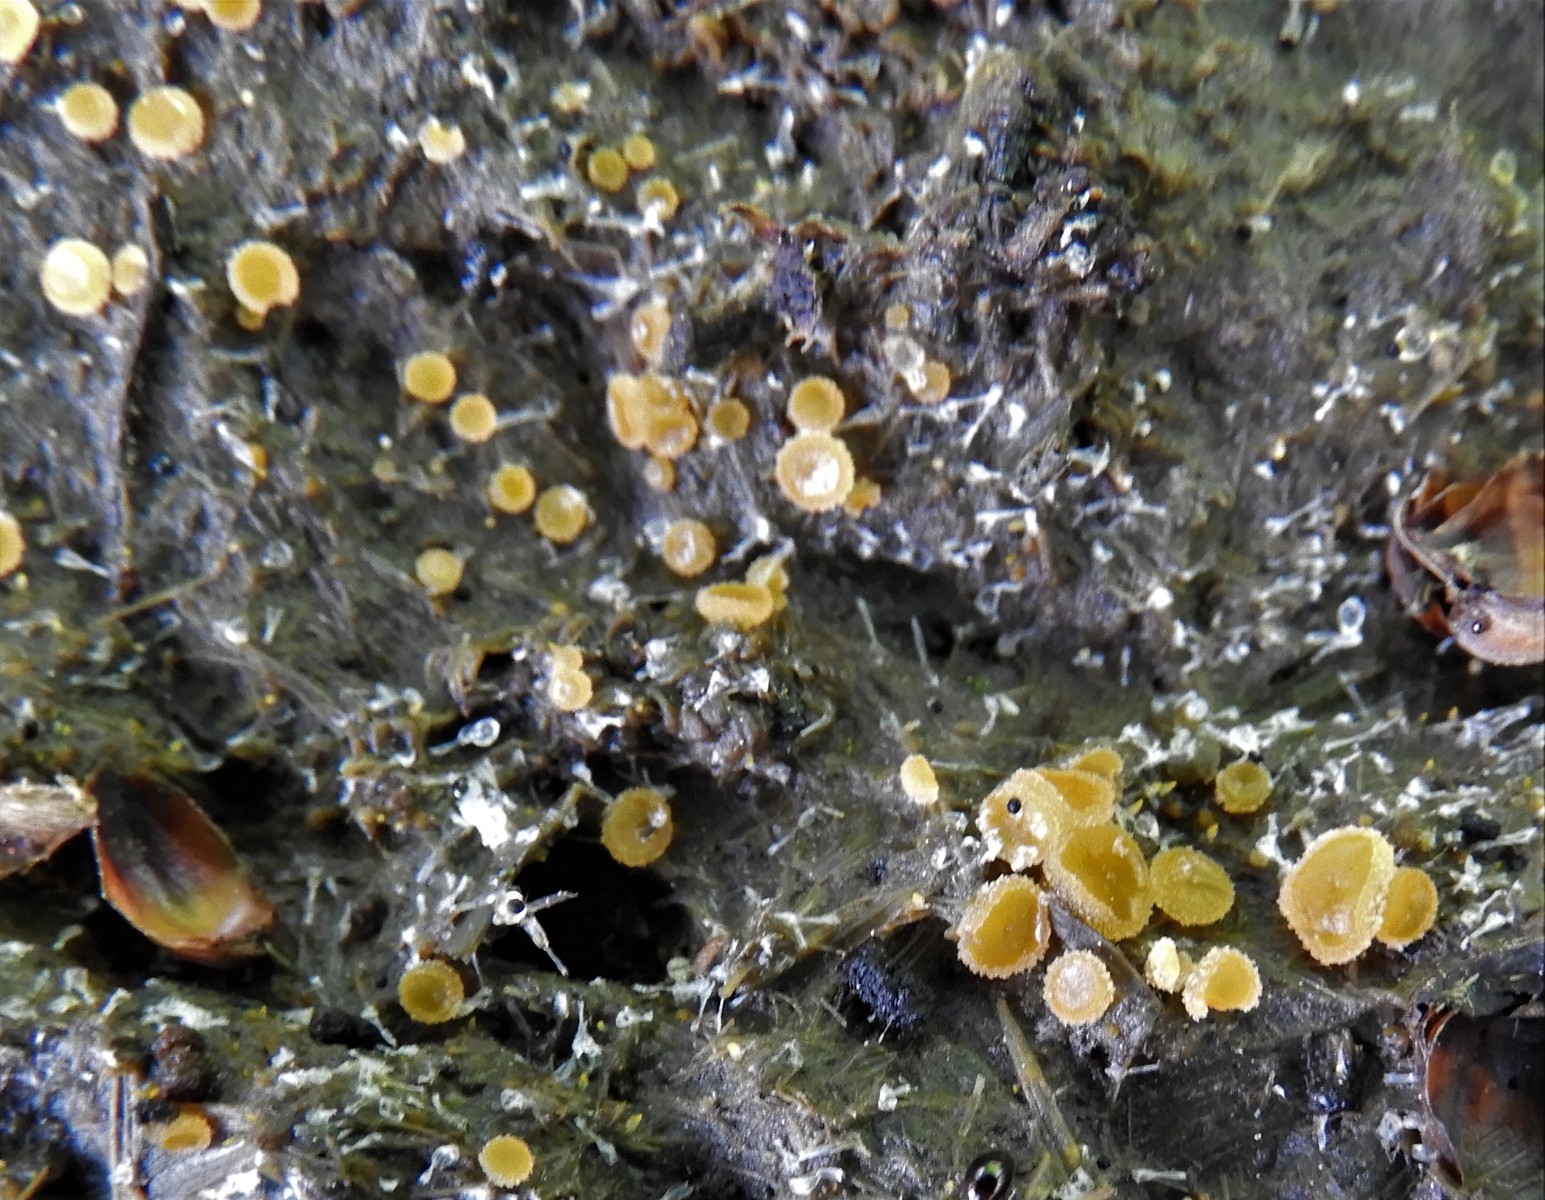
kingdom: Fungi
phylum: Ascomycota
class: Pezizomycetes
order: Pezizales
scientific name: Pezizales
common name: bægersvampordenen
